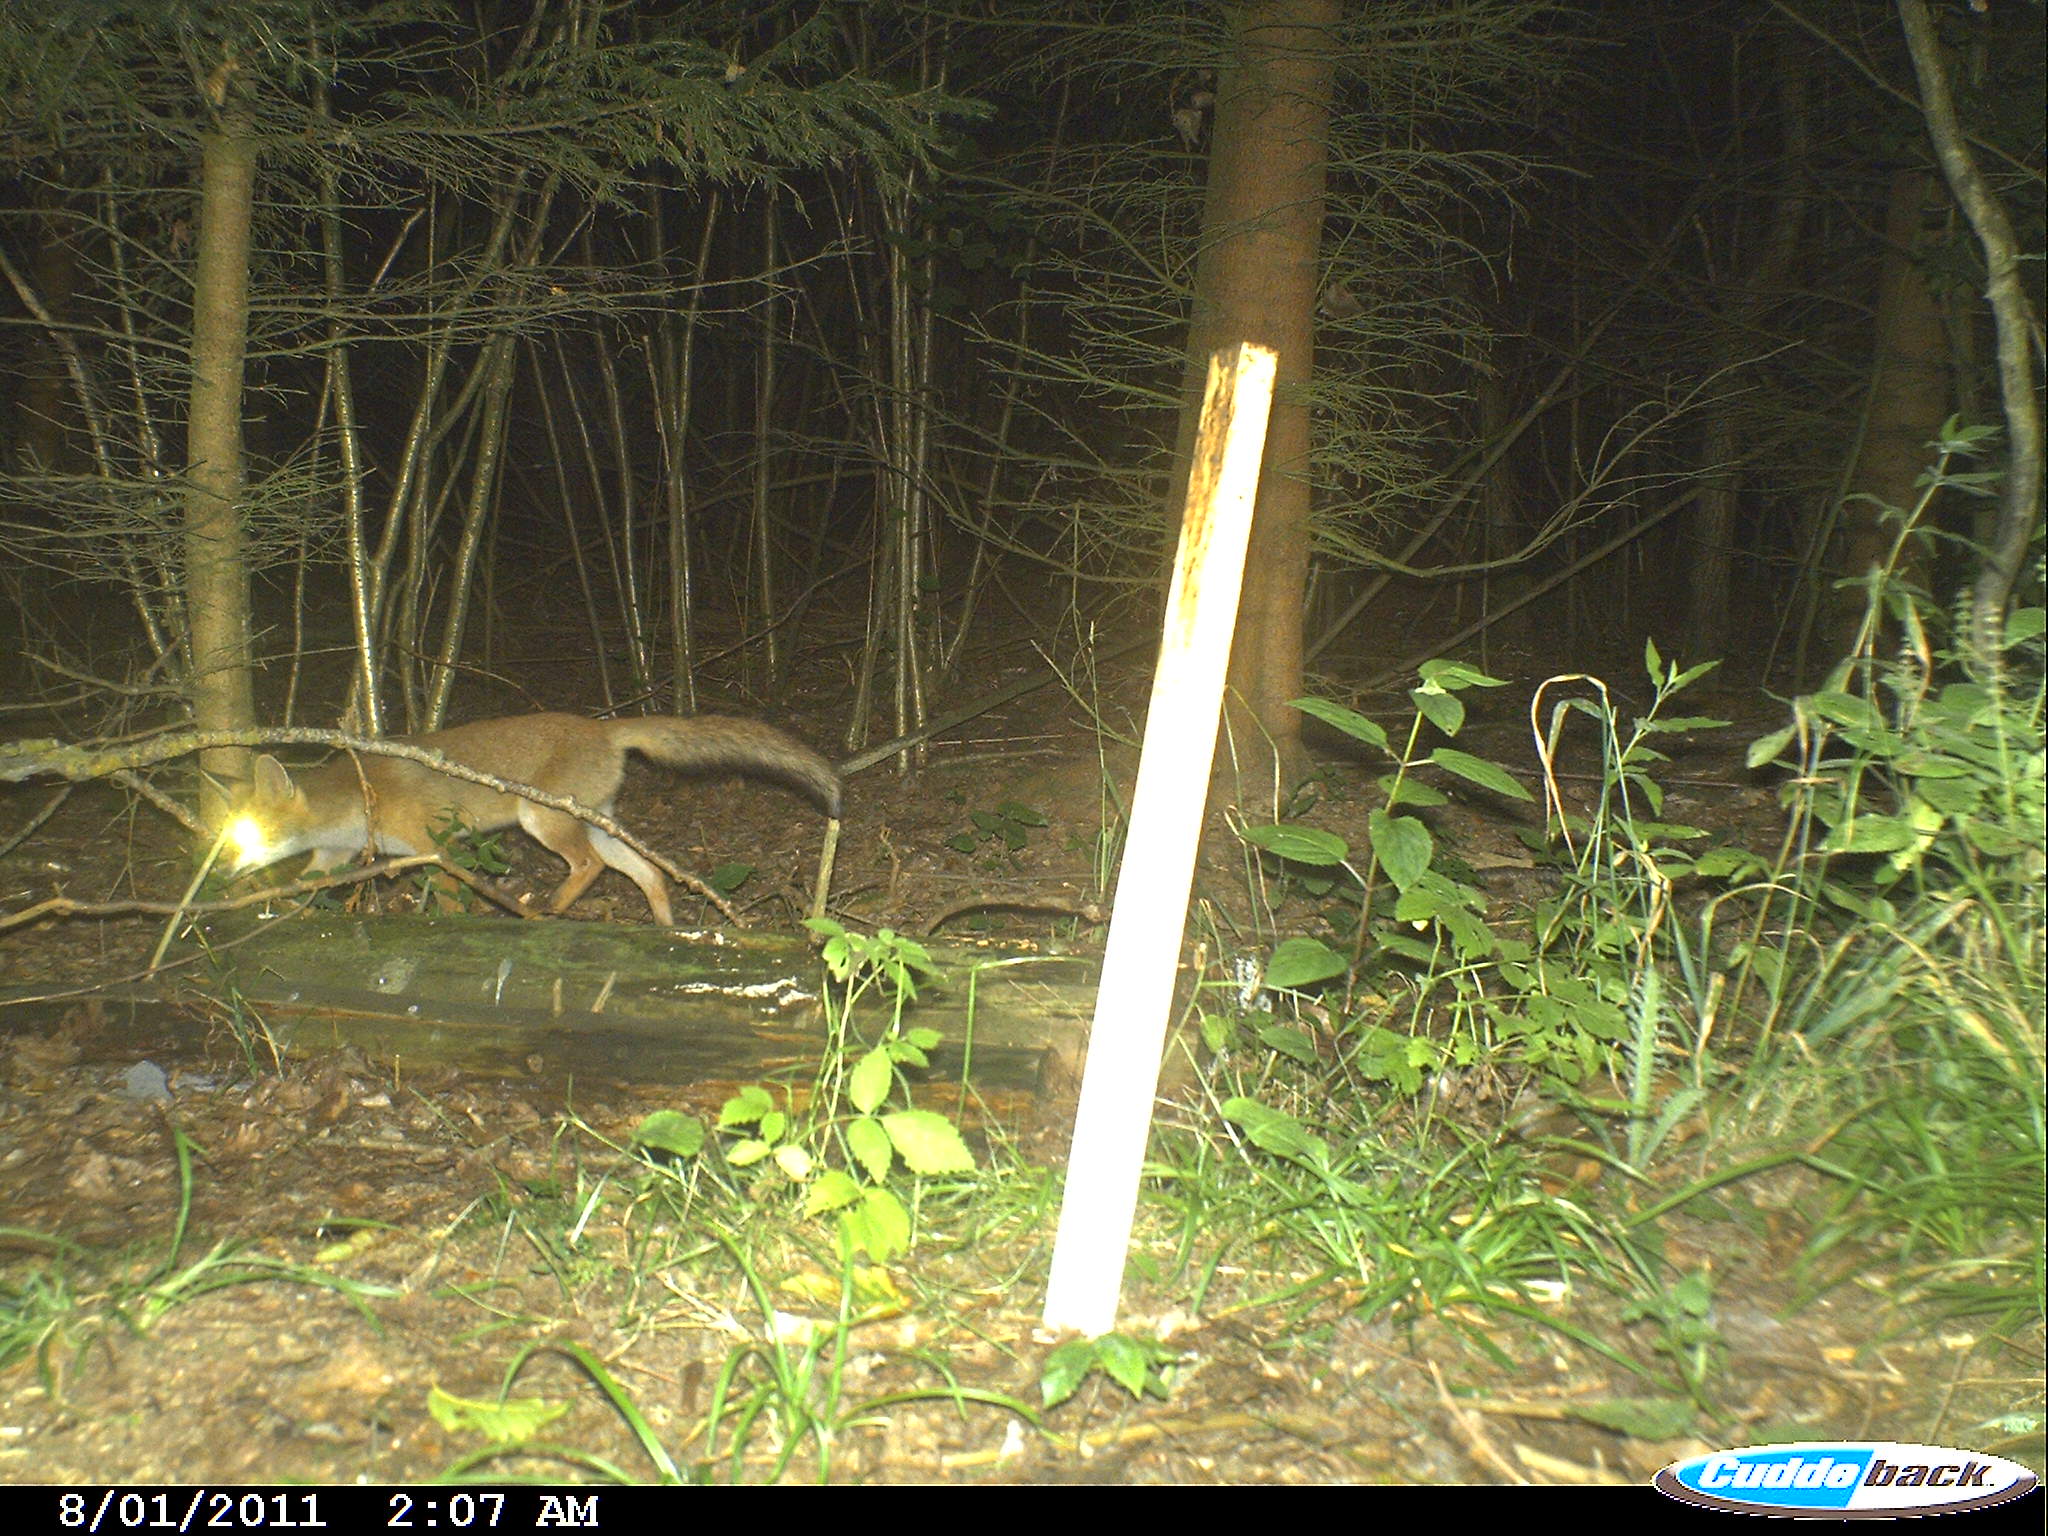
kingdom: Animalia
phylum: Chordata
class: Mammalia
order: Carnivora
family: Canidae
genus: Vulpes
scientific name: Vulpes vulpes
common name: Red fox
